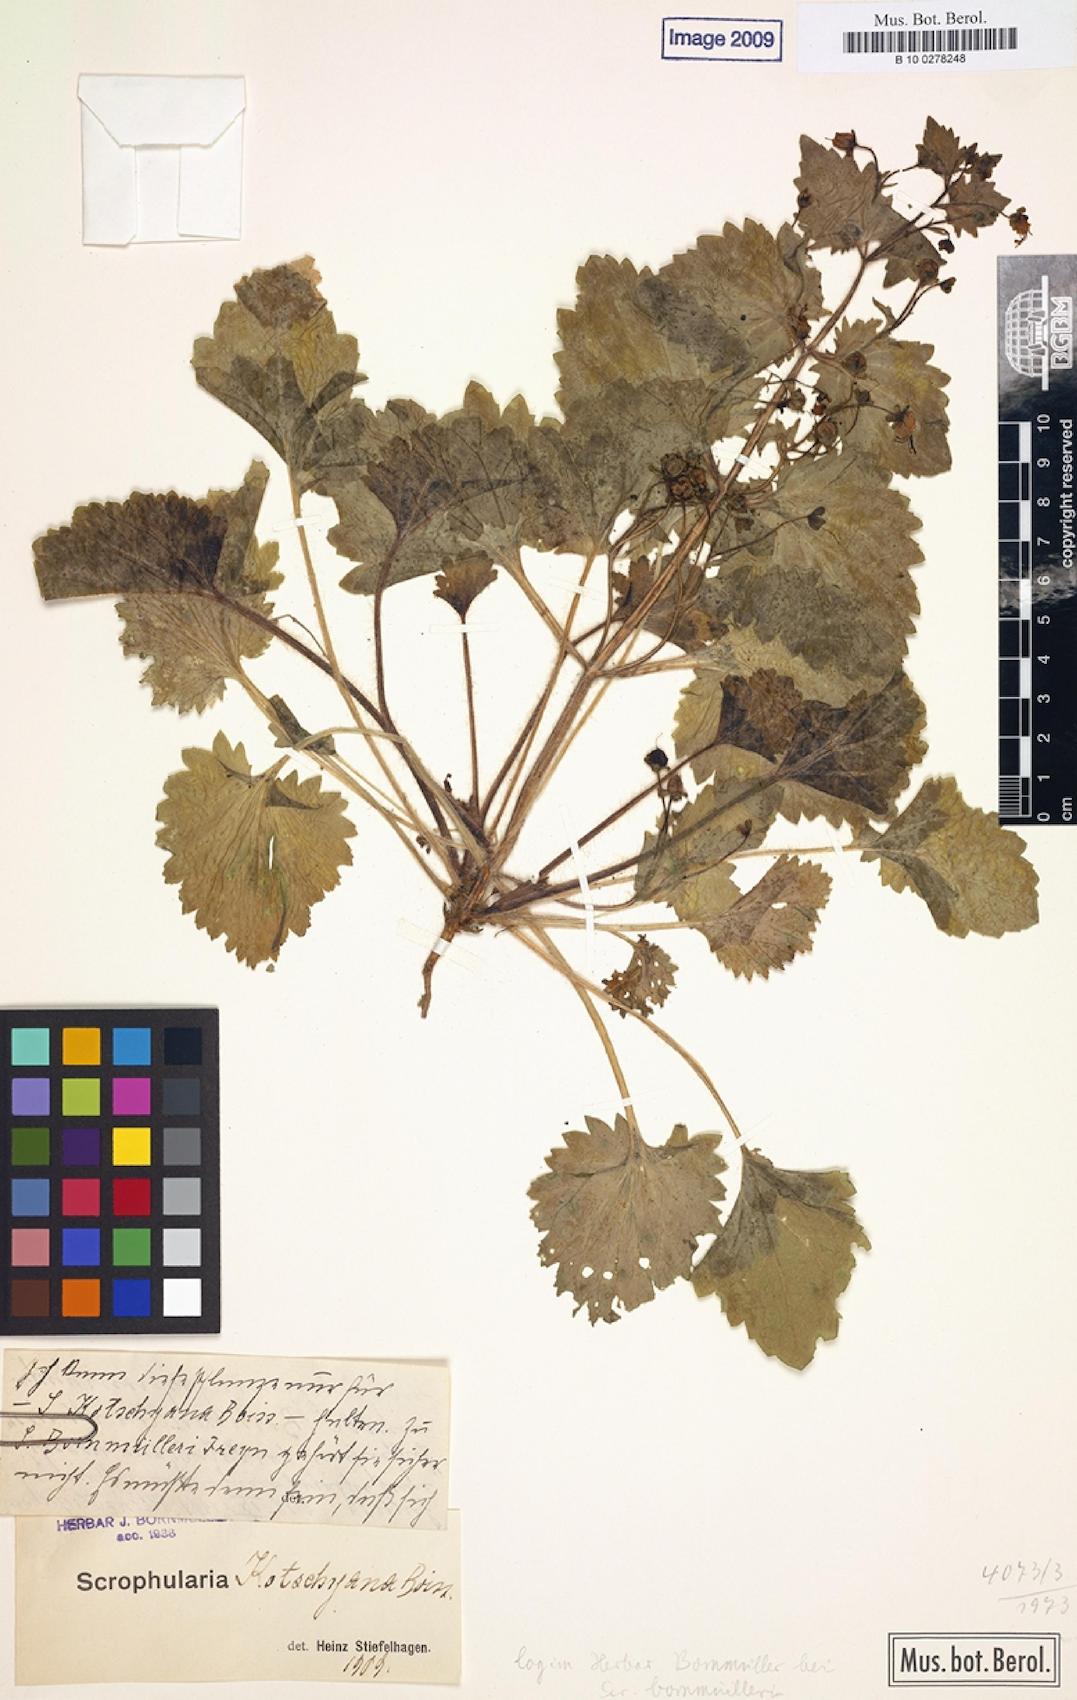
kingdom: Plantae
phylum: Tracheophyta
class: Magnoliopsida
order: Lamiales
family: Scrophulariaceae
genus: Scrophularia
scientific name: Scrophularia kotschyana
